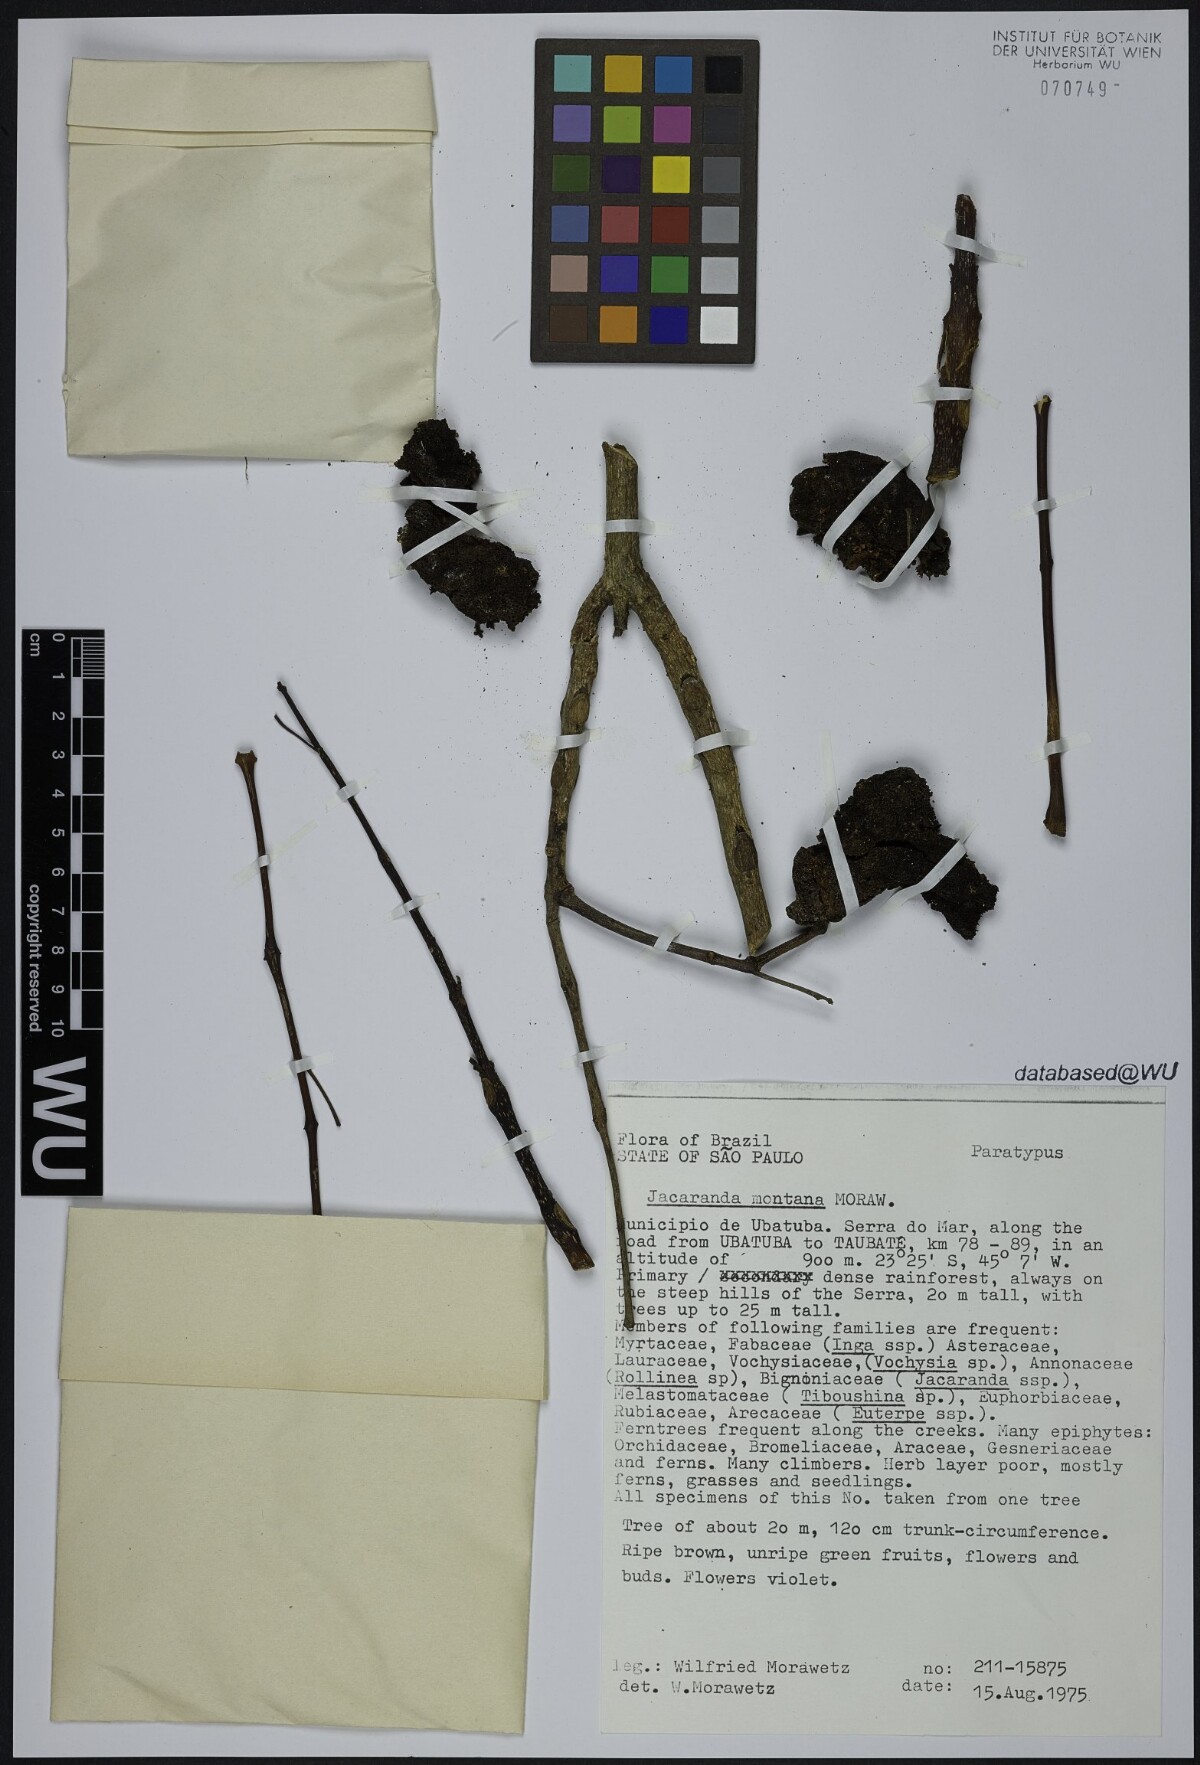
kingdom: Plantae
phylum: Tracheophyta
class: Magnoliopsida
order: Lamiales
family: Bignoniaceae
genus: Jacaranda
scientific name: Jacaranda montana
